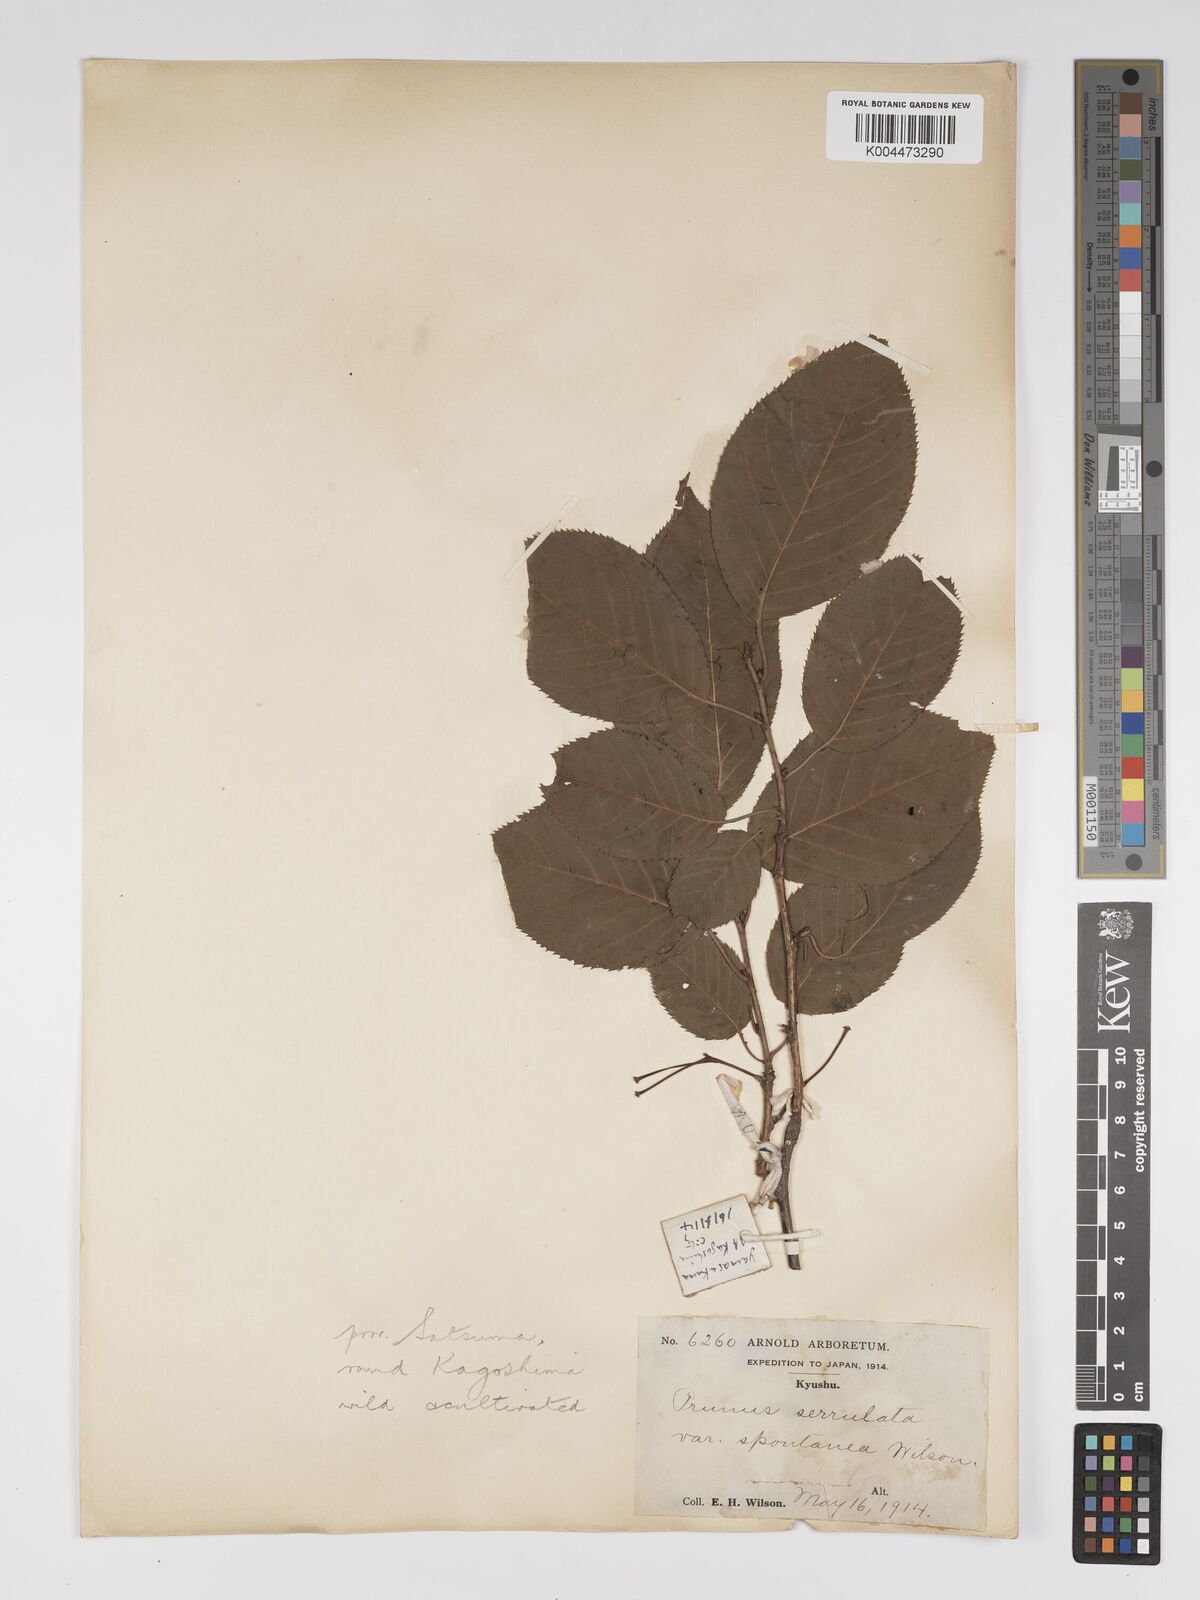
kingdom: Plantae
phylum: Tracheophyta
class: Magnoliopsida
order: Rosales
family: Rosaceae
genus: Prunus
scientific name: Prunus serrulata
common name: Japanese cherry
